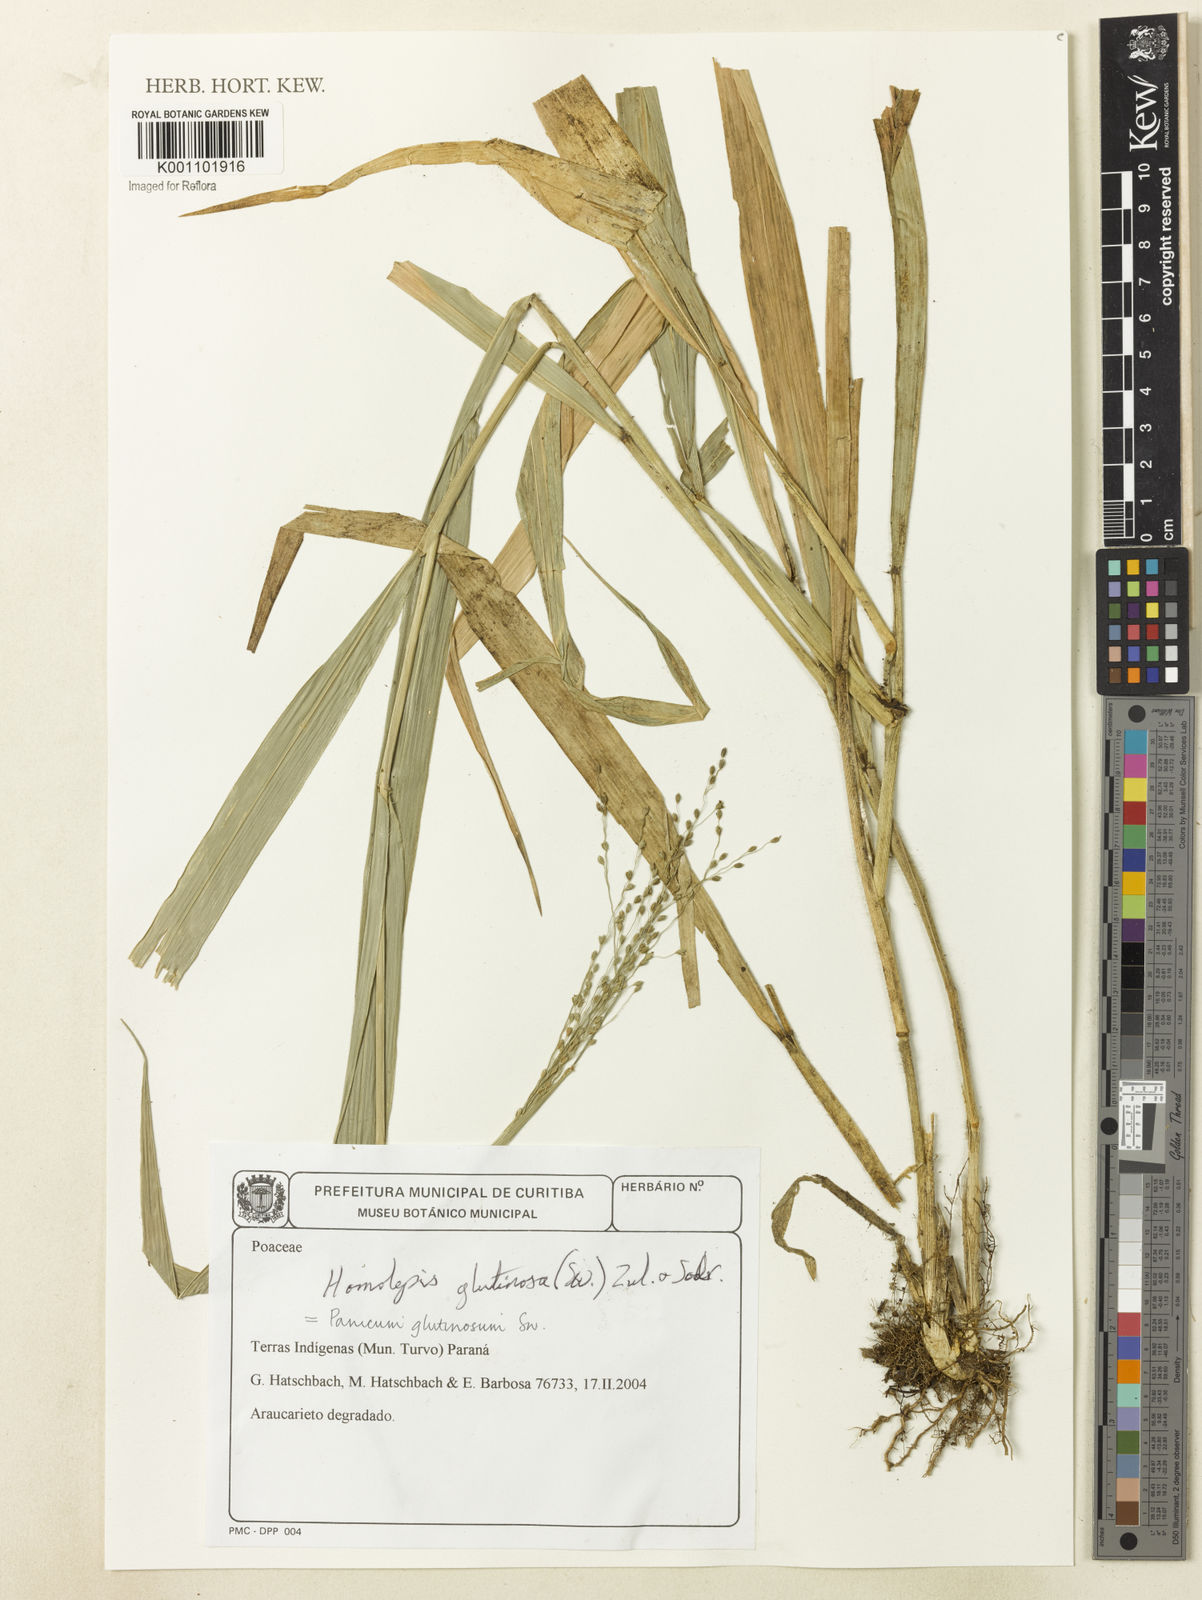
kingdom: Plantae
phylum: Tracheophyta
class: Liliopsida
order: Poales
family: Poaceae
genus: Homolepis
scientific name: Homolepis glutinosa
